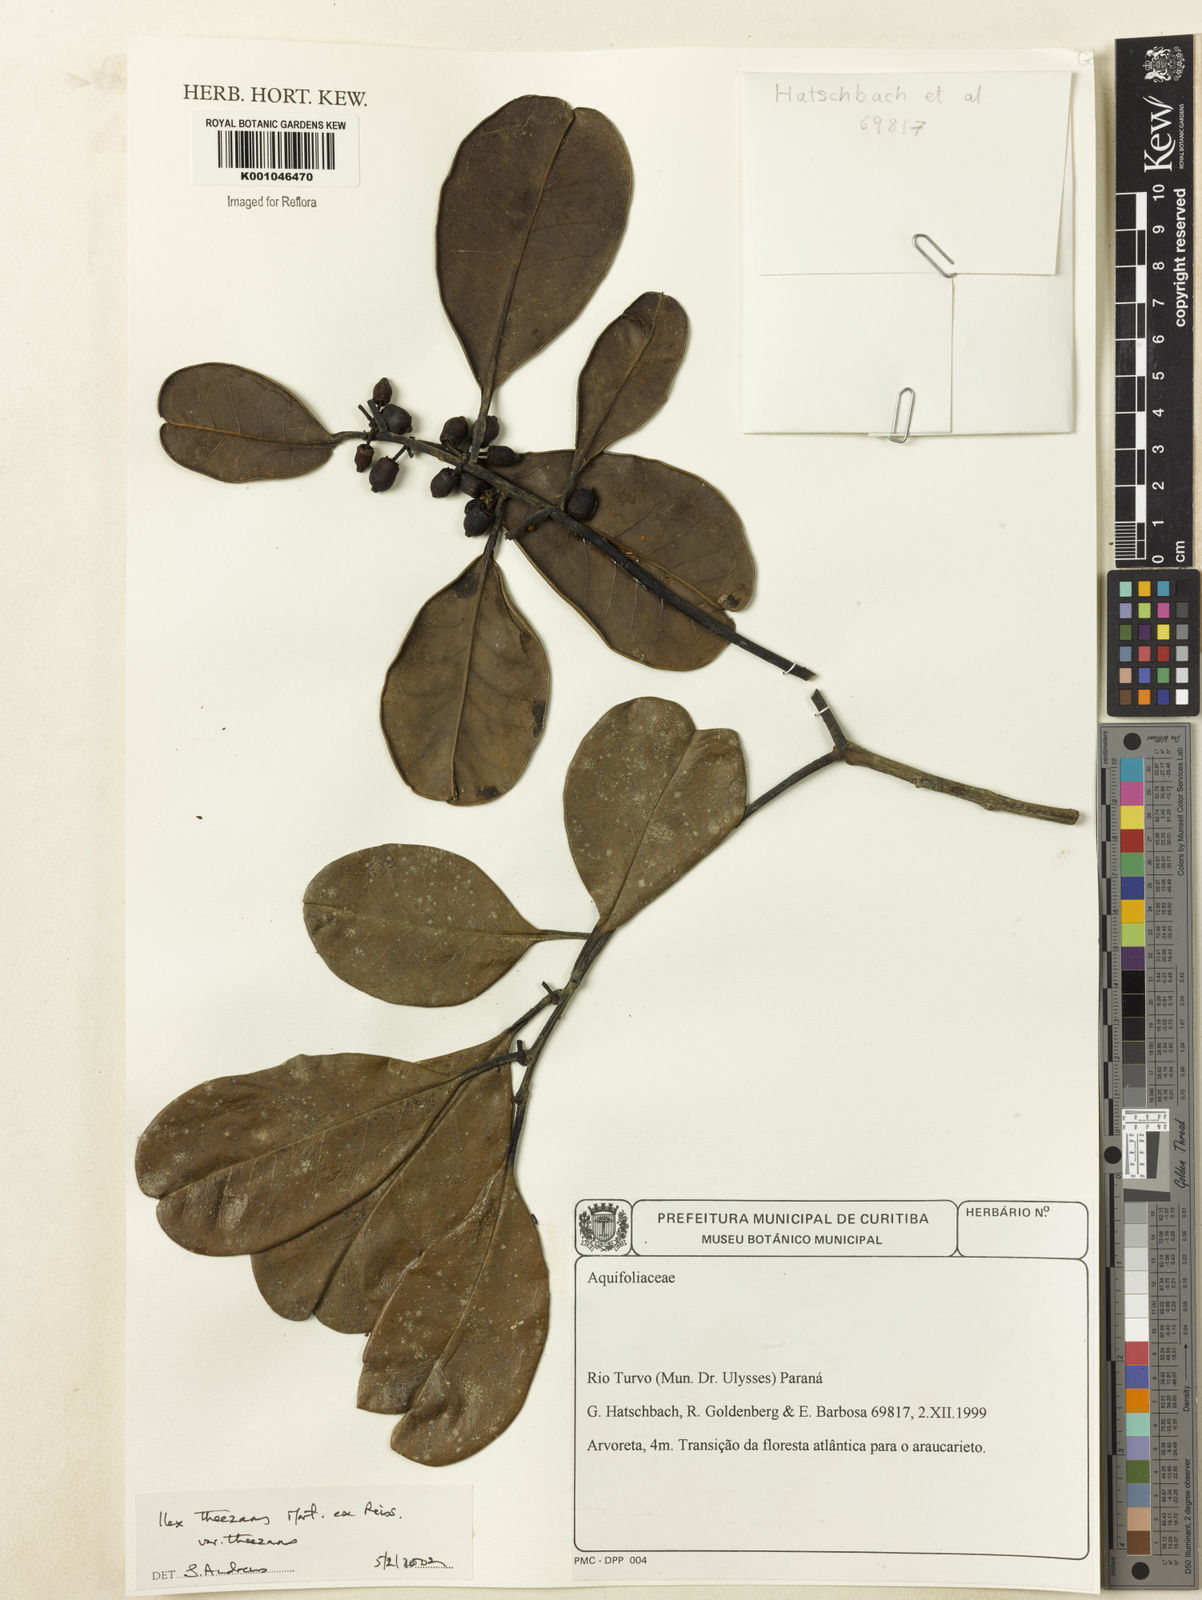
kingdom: Plantae
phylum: Tracheophyta
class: Magnoliopsida
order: Aquifoliales
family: Aquifoliaceae
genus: Ilex
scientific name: Ilex paraguariensis
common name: Paraguay tea
